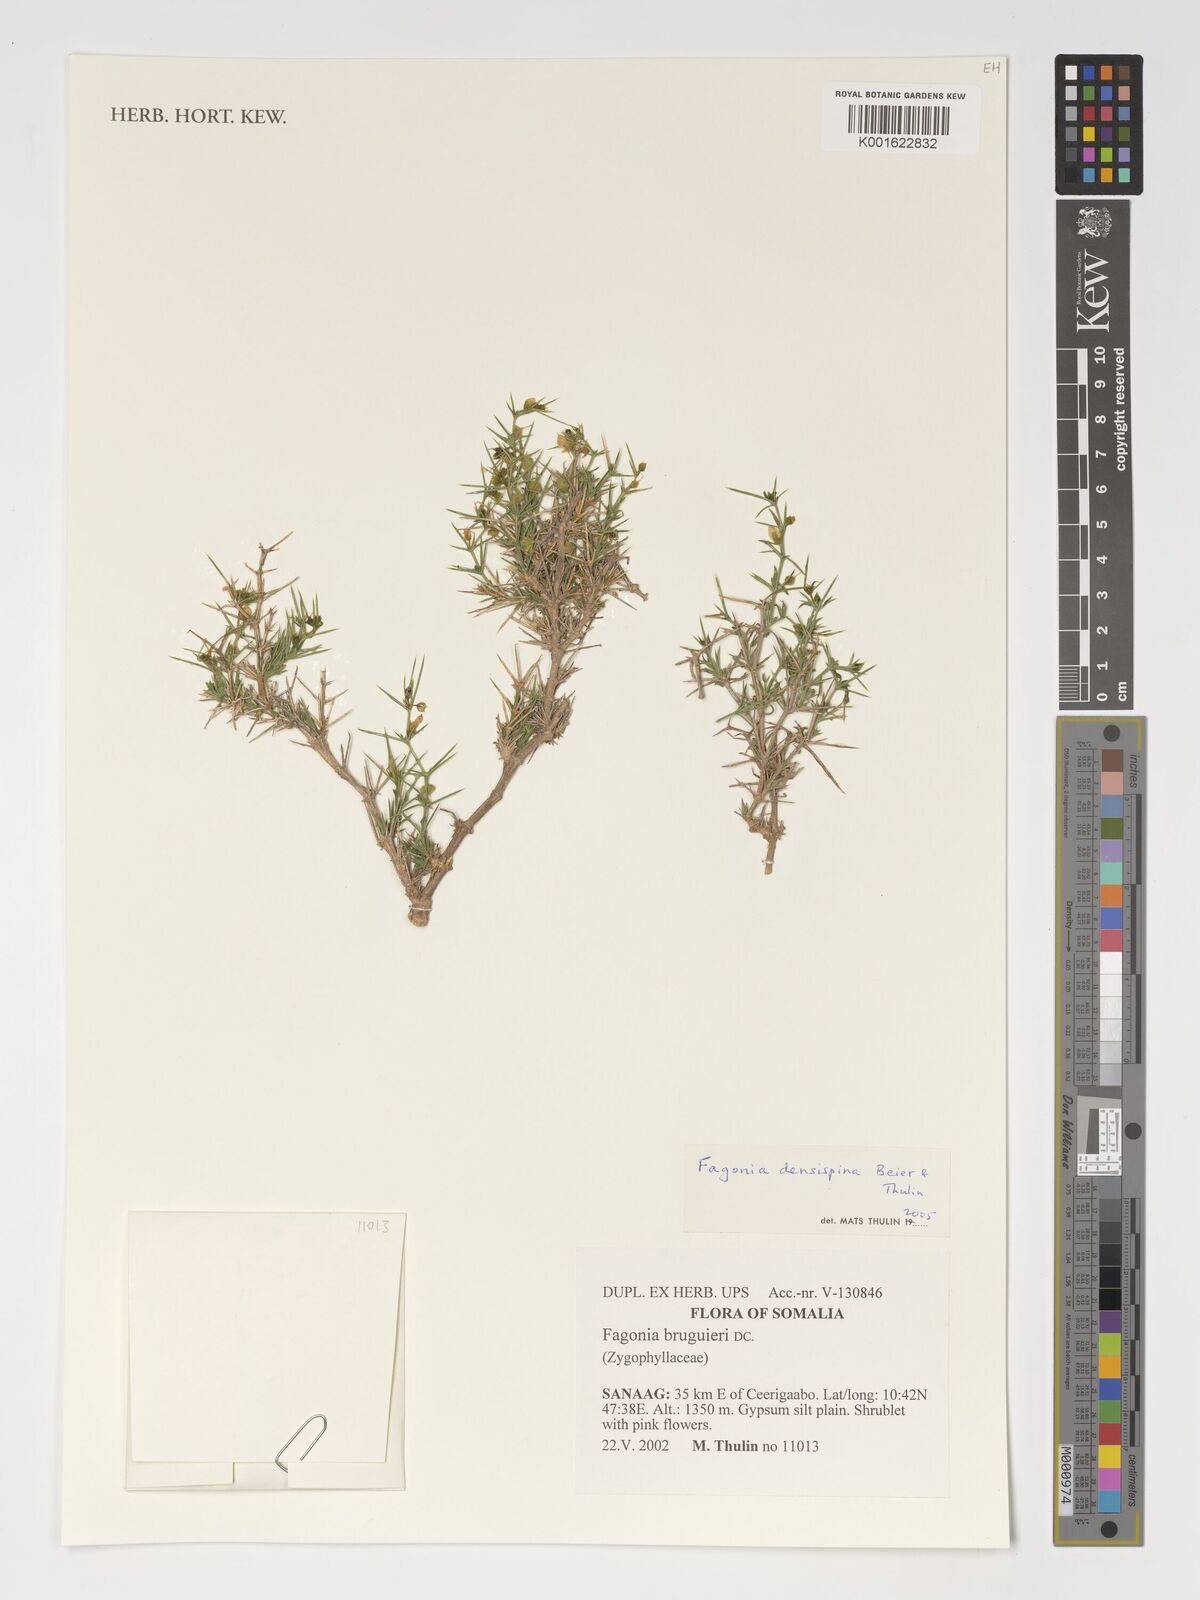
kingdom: Plantae
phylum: Tracheophyta
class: Magnoliopsida
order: Zygophyllales
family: Zygophyllaceae
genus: Fagonia
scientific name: Fagonia densispina
